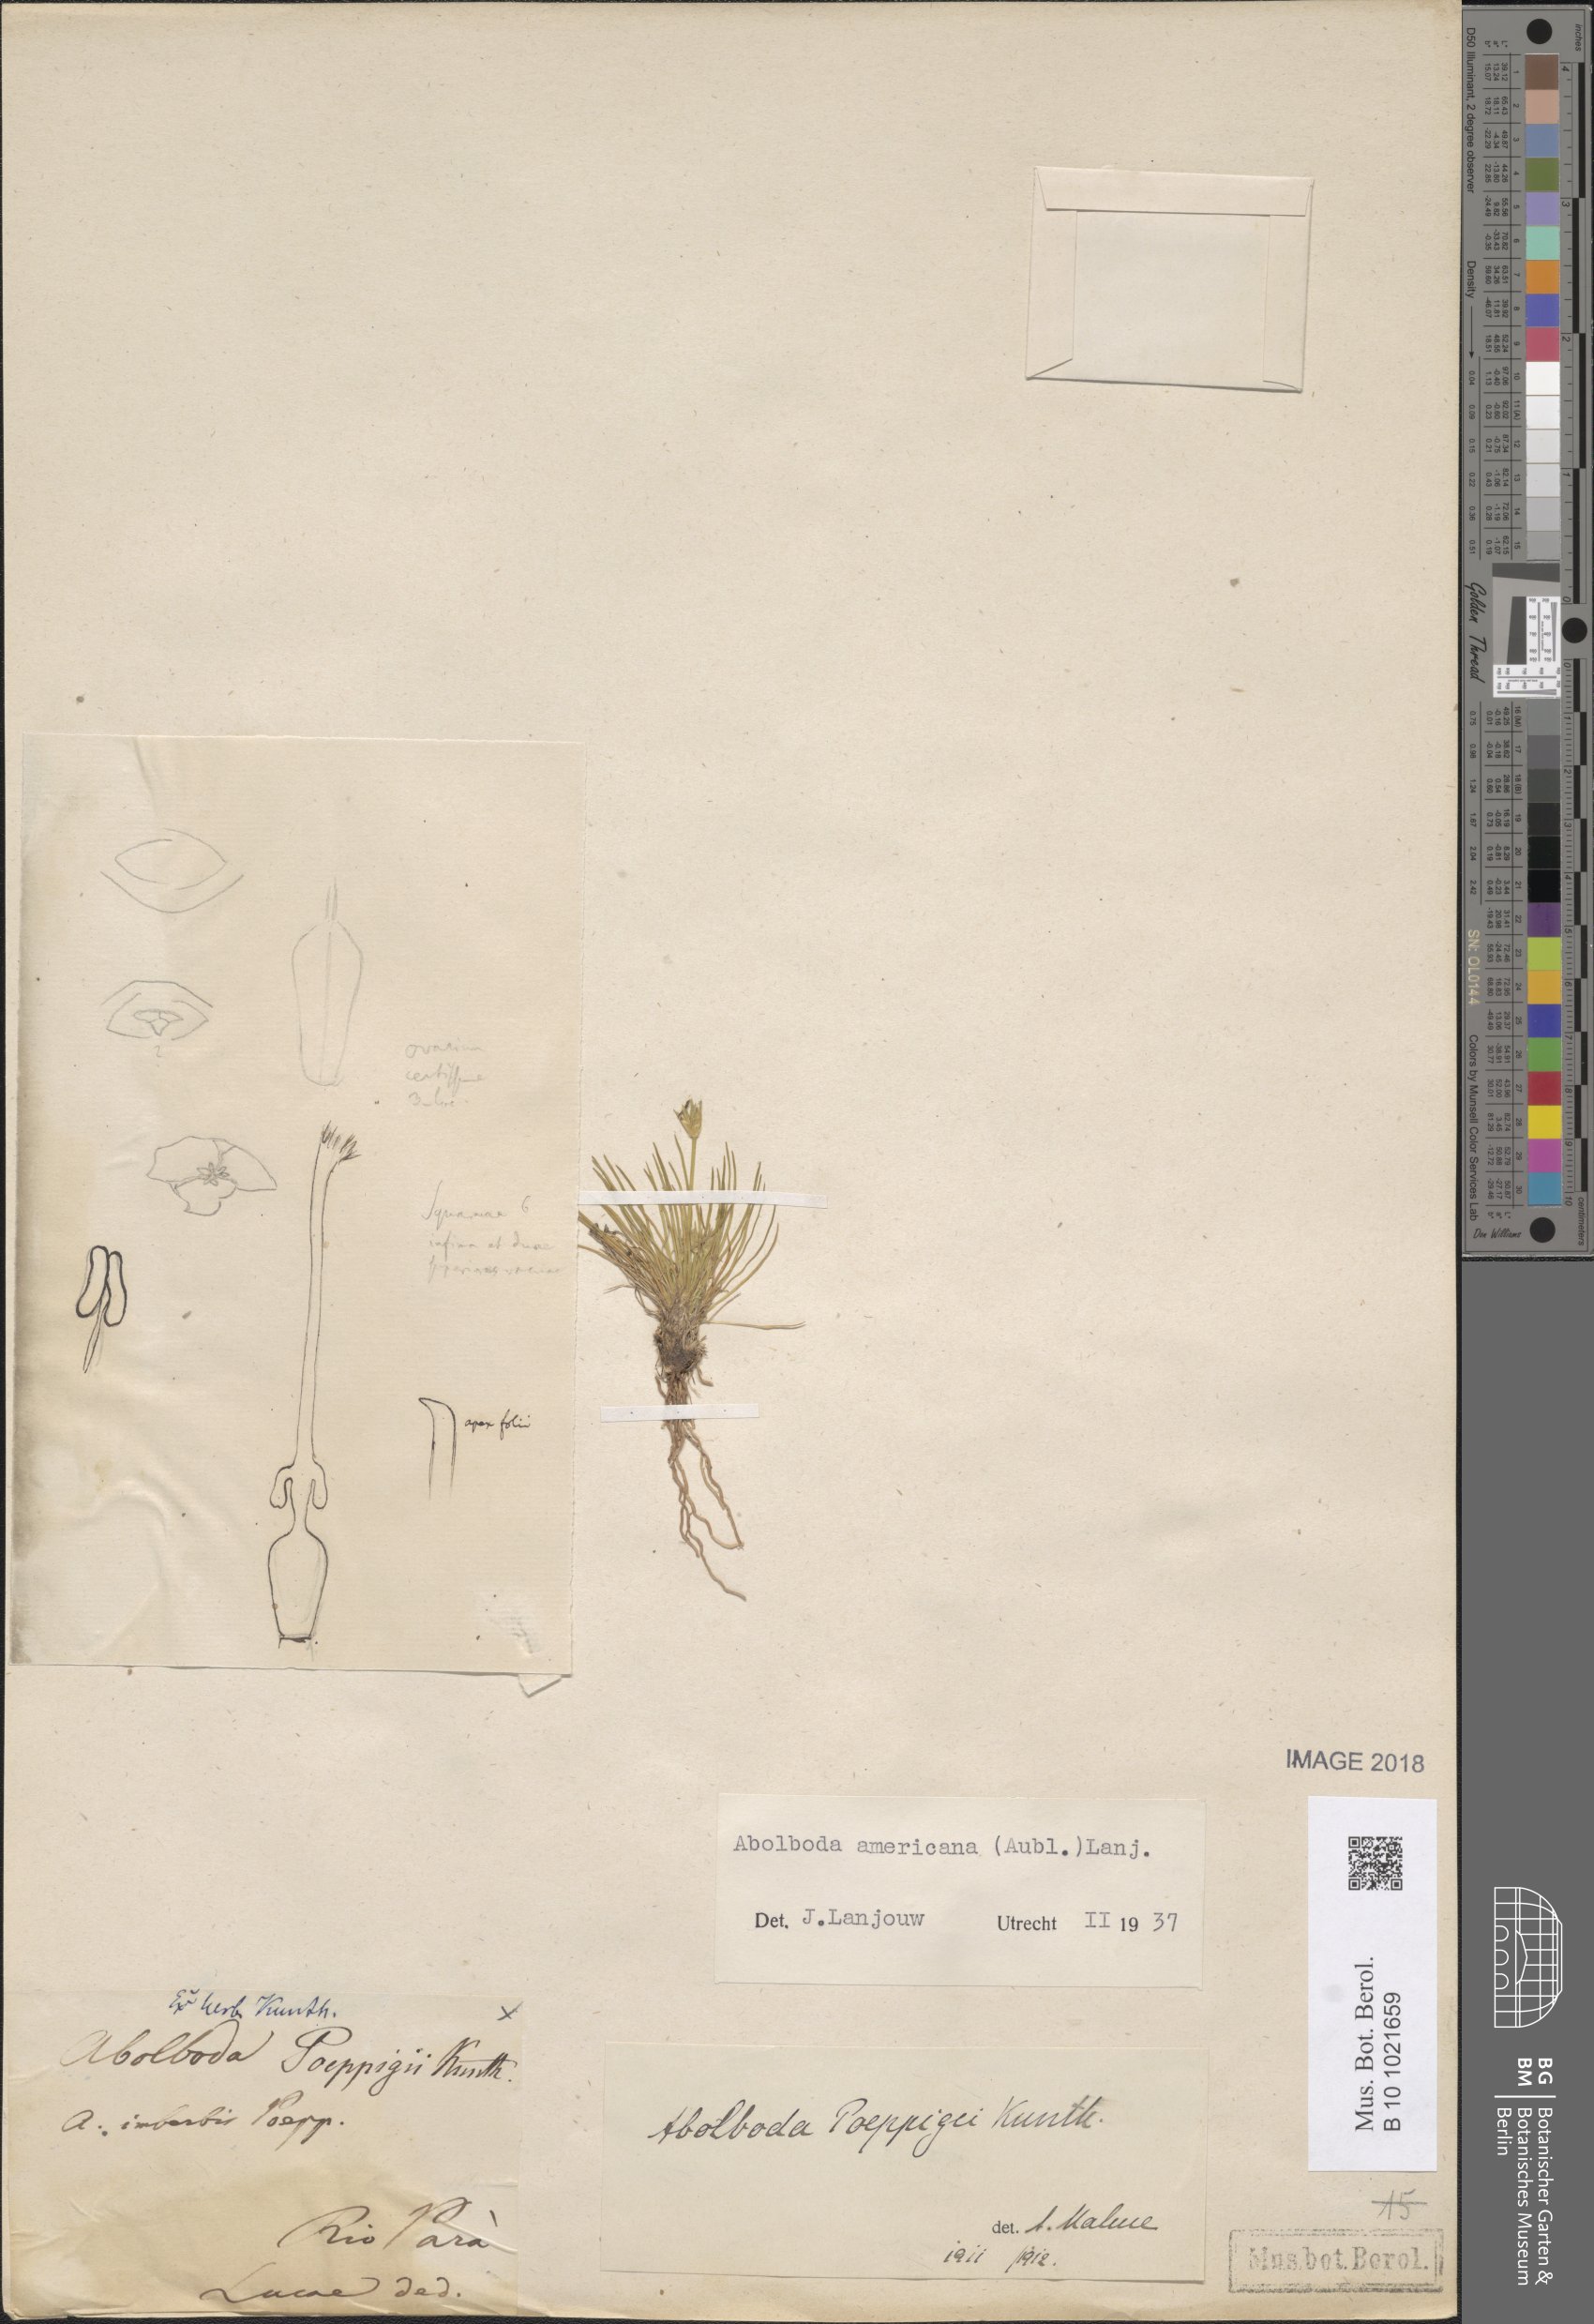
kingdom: Plantae
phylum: Tracheophyta
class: Liliopsida
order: Poales
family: Xyridaceae
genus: Abolboda
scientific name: Abolboda americana
